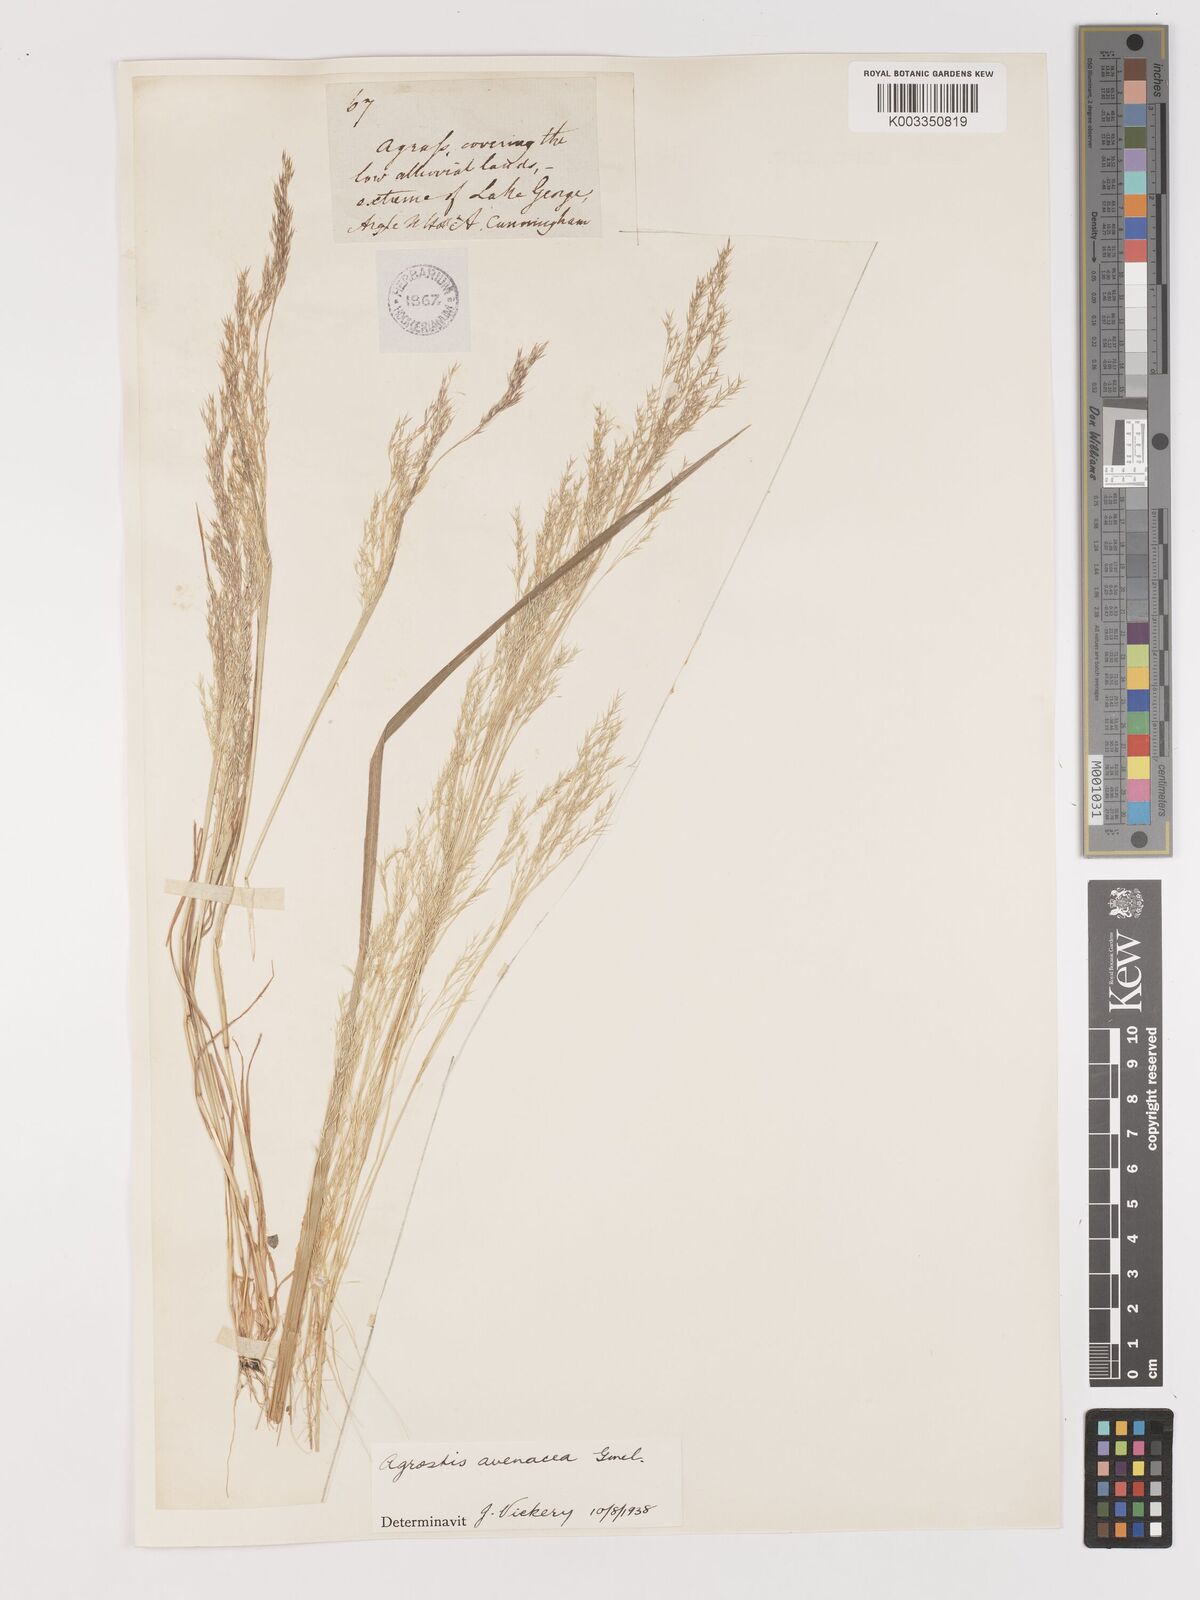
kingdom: Plantae
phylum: Tracheophyta
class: Liliopsida
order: Poales
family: Poaceae
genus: Lachnagrostis
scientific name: Lachnagrostis filiformis
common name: Bentgrass
